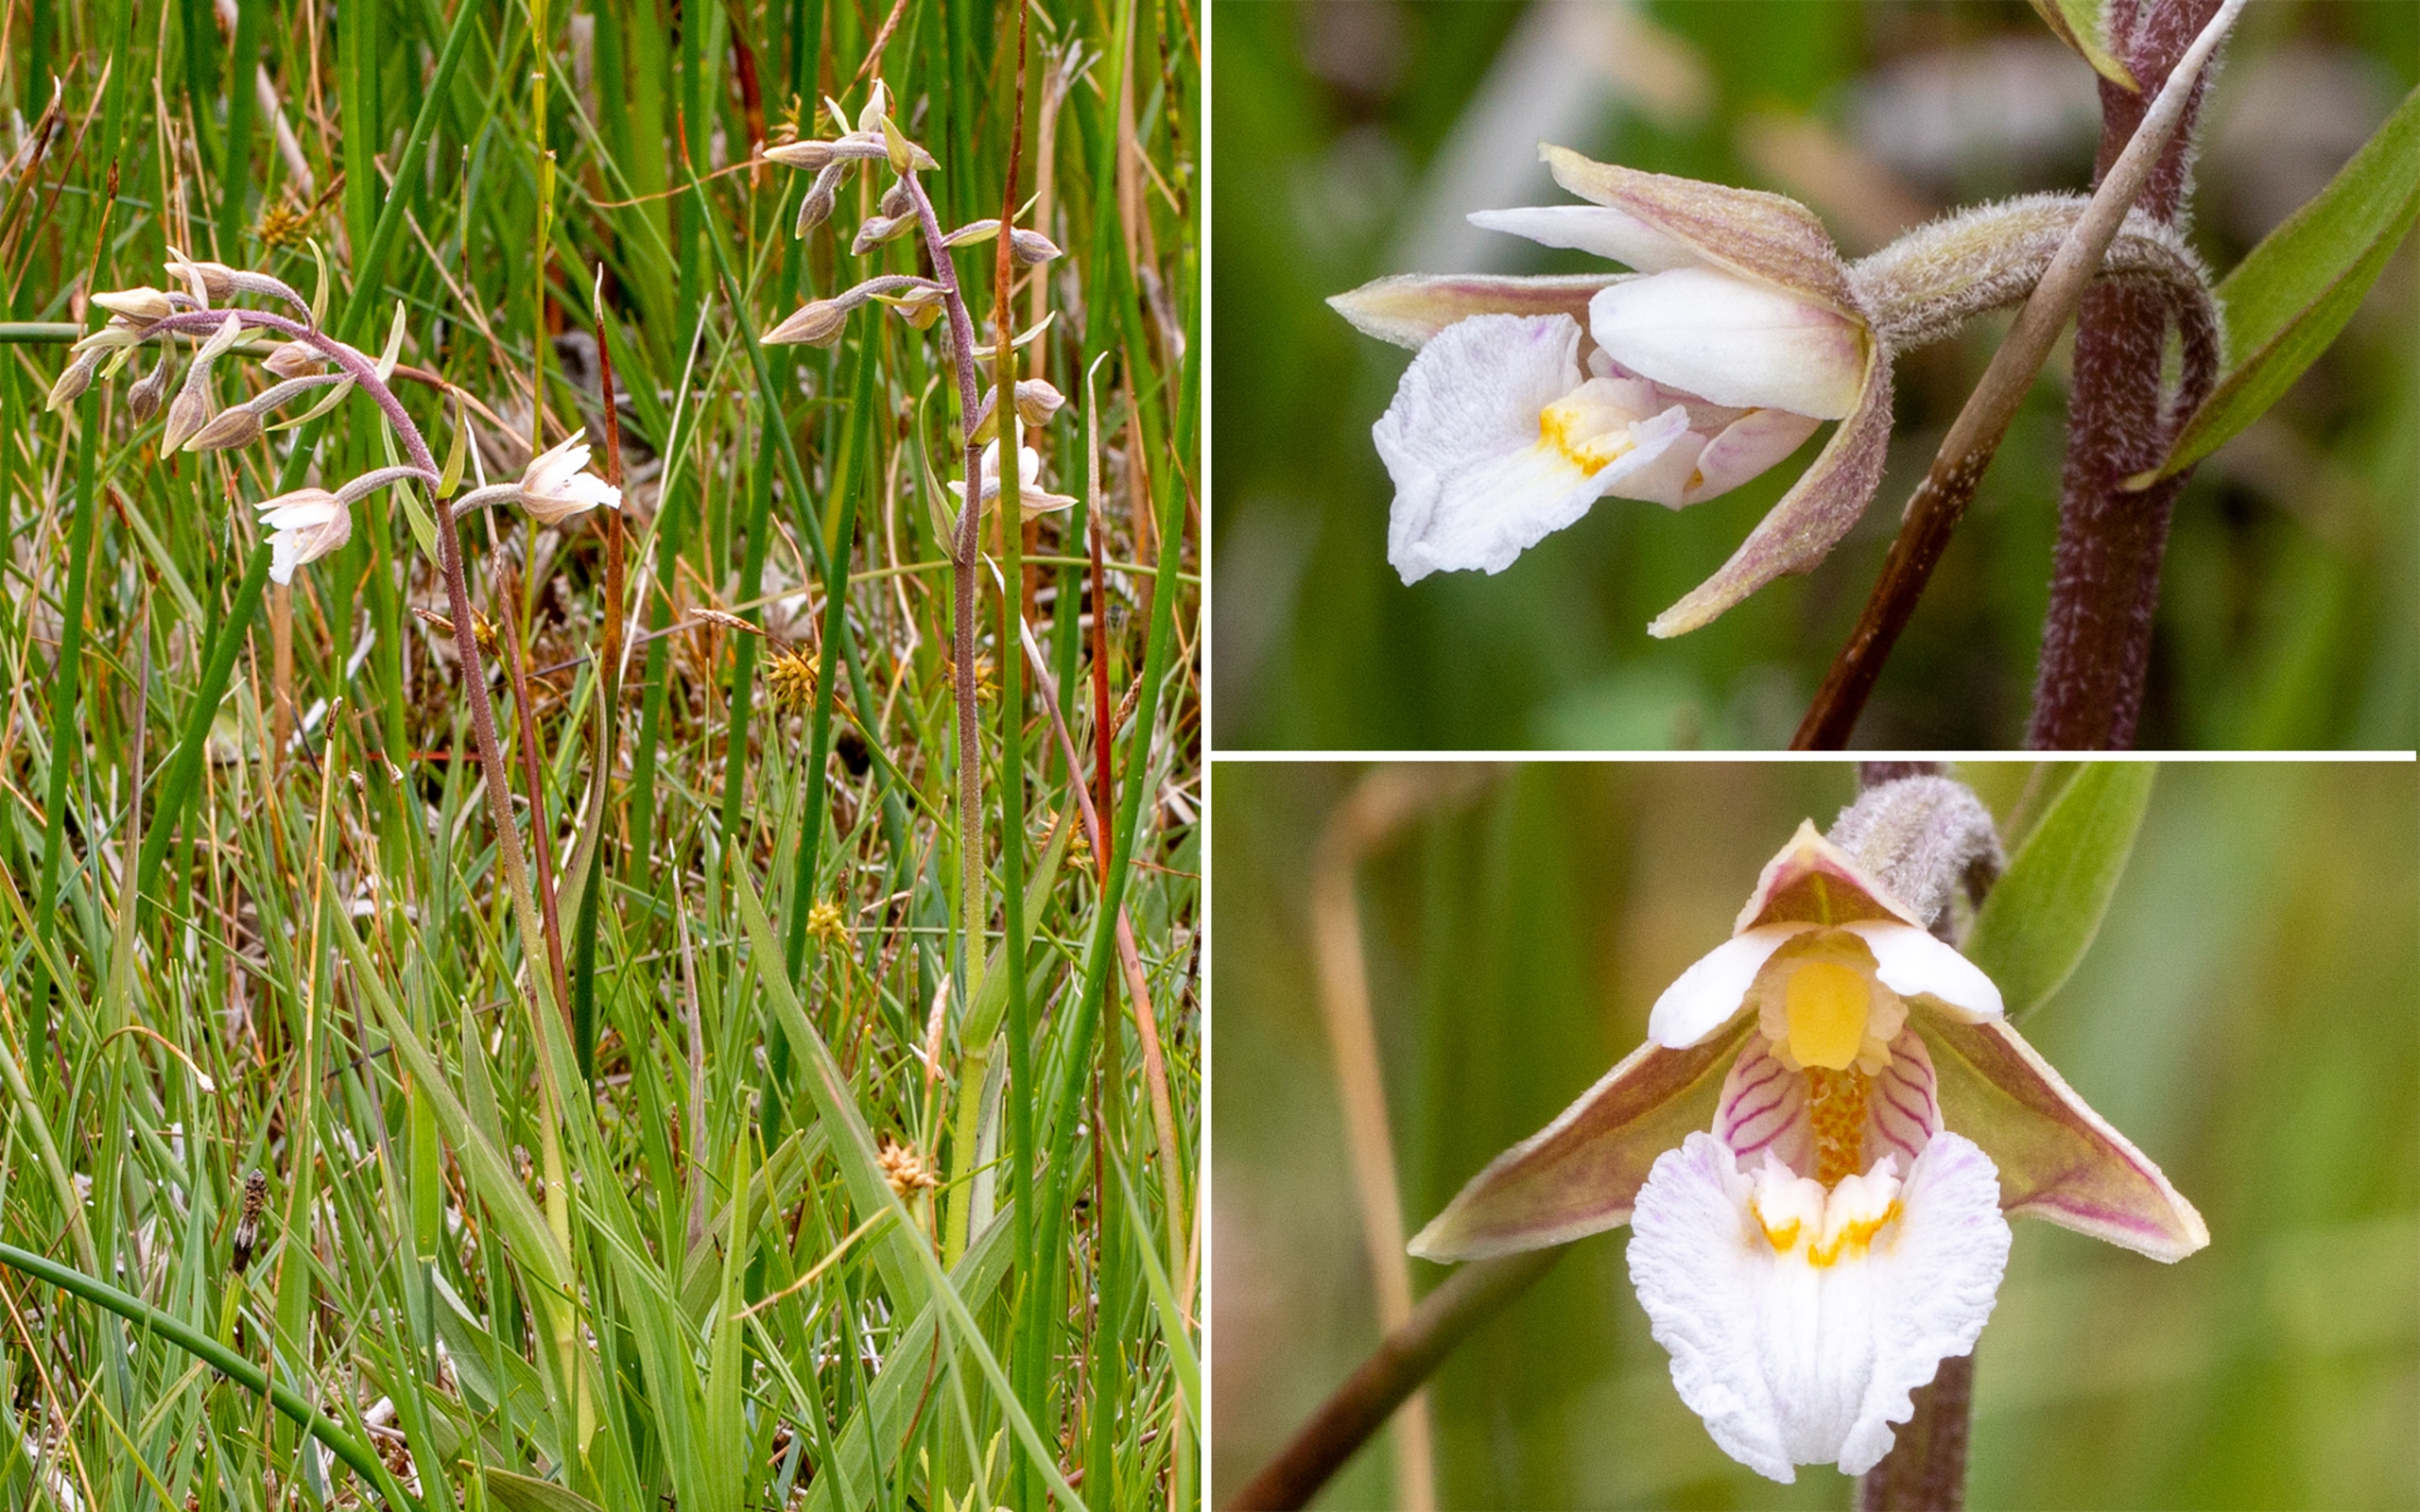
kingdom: Plantae
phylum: Tracheophyta
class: Liliopsida
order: Asparagales
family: Orchidaceae
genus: Epipactis
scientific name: Epipactis palustris
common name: Sump-hullæbe
